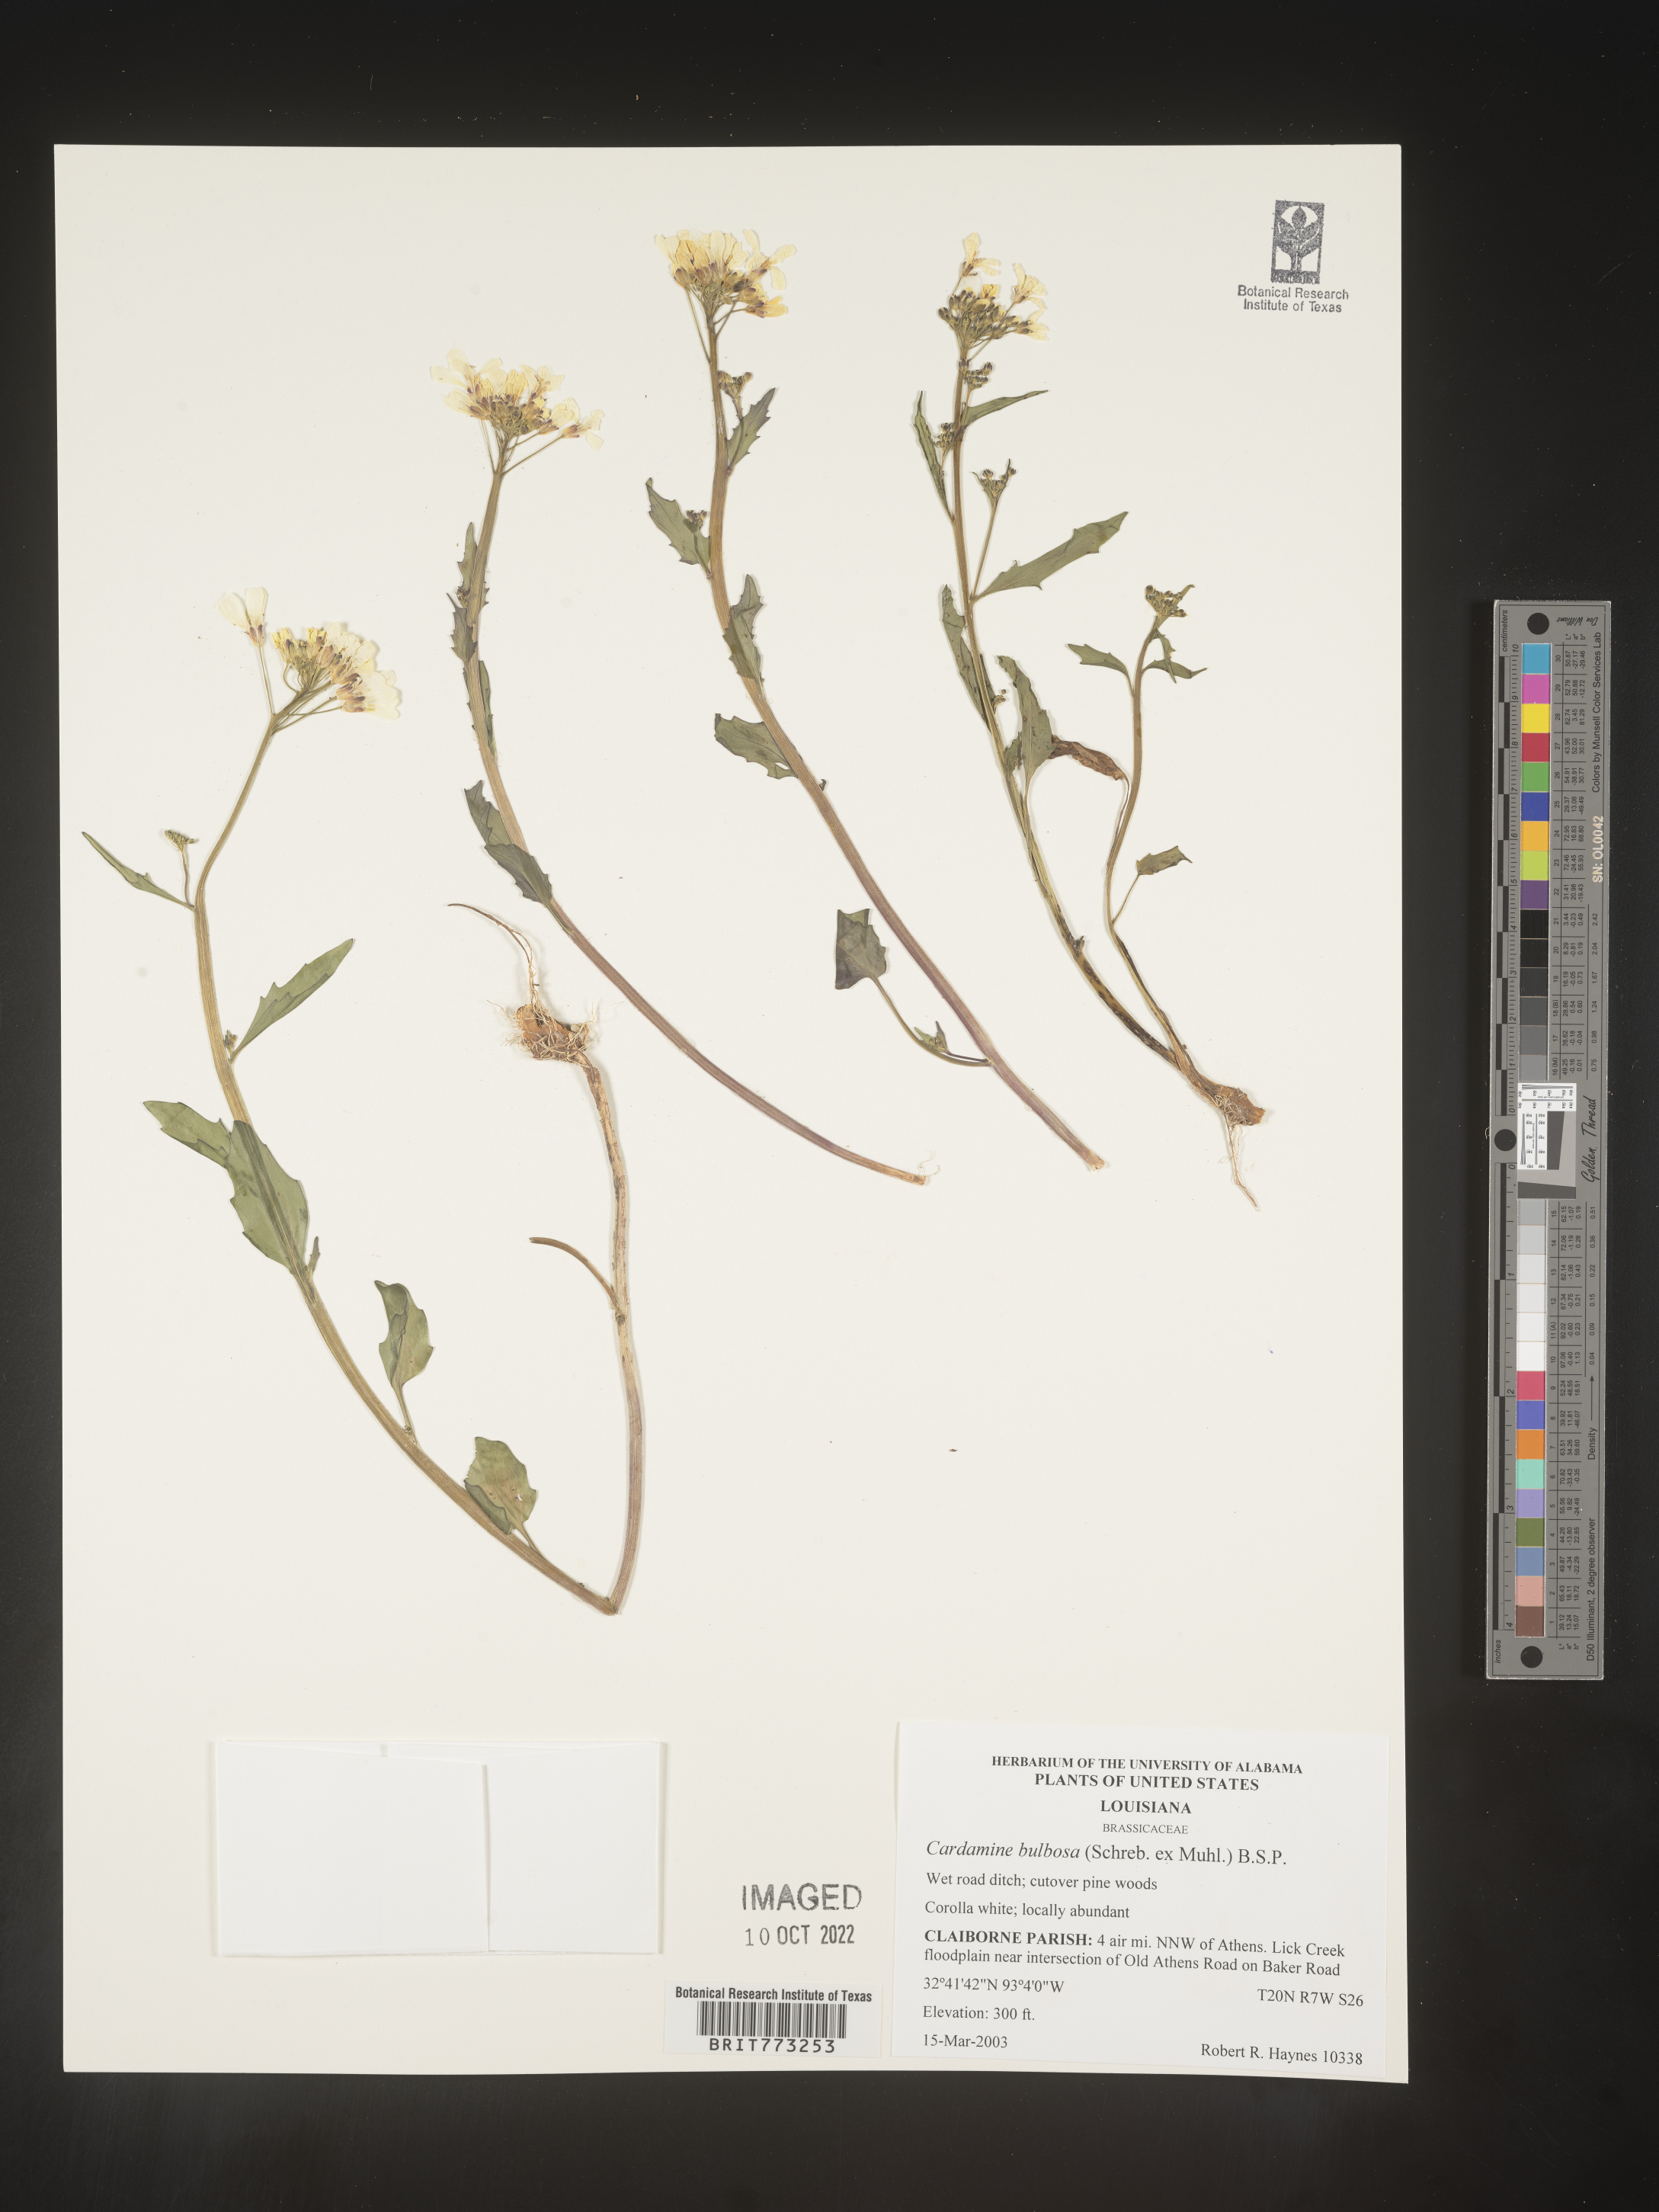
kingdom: Plantae
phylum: Tracheophyta
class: Magnoliopsida
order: Brassicales
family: Brassicaceae
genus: Cardamine
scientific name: Cardamine bulbosa
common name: Spring cress
